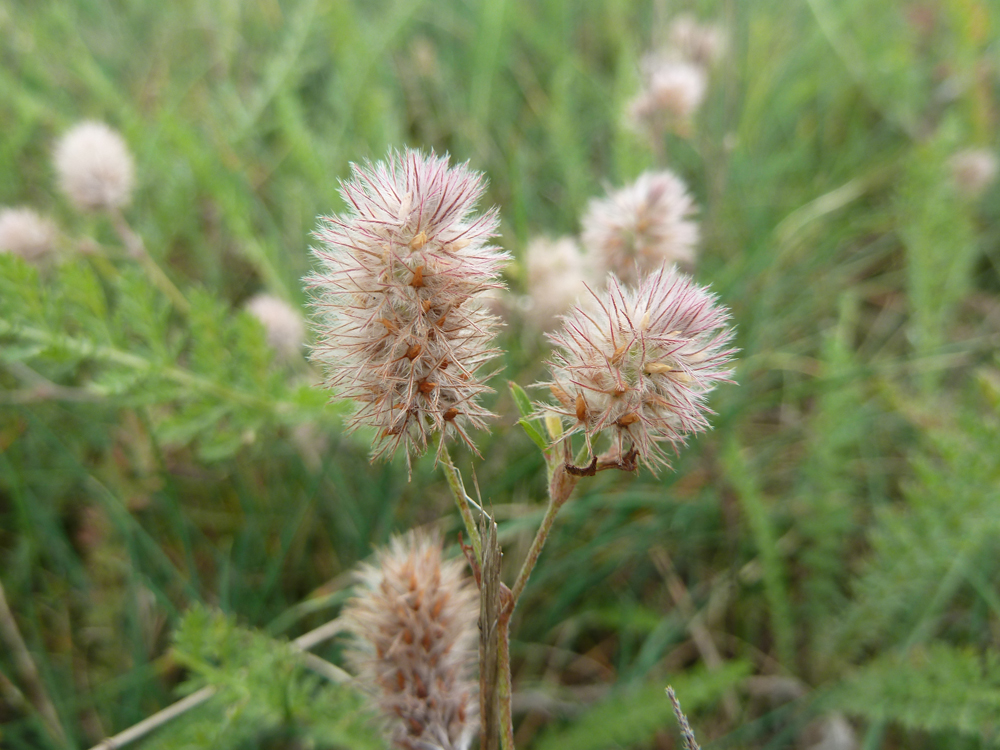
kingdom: Plantae
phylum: Tracheophyta
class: Magnoliopsida
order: Fabales
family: Fabaceae
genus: Trifolium
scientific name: Trifolium arvense
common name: Hare's-foot clover
